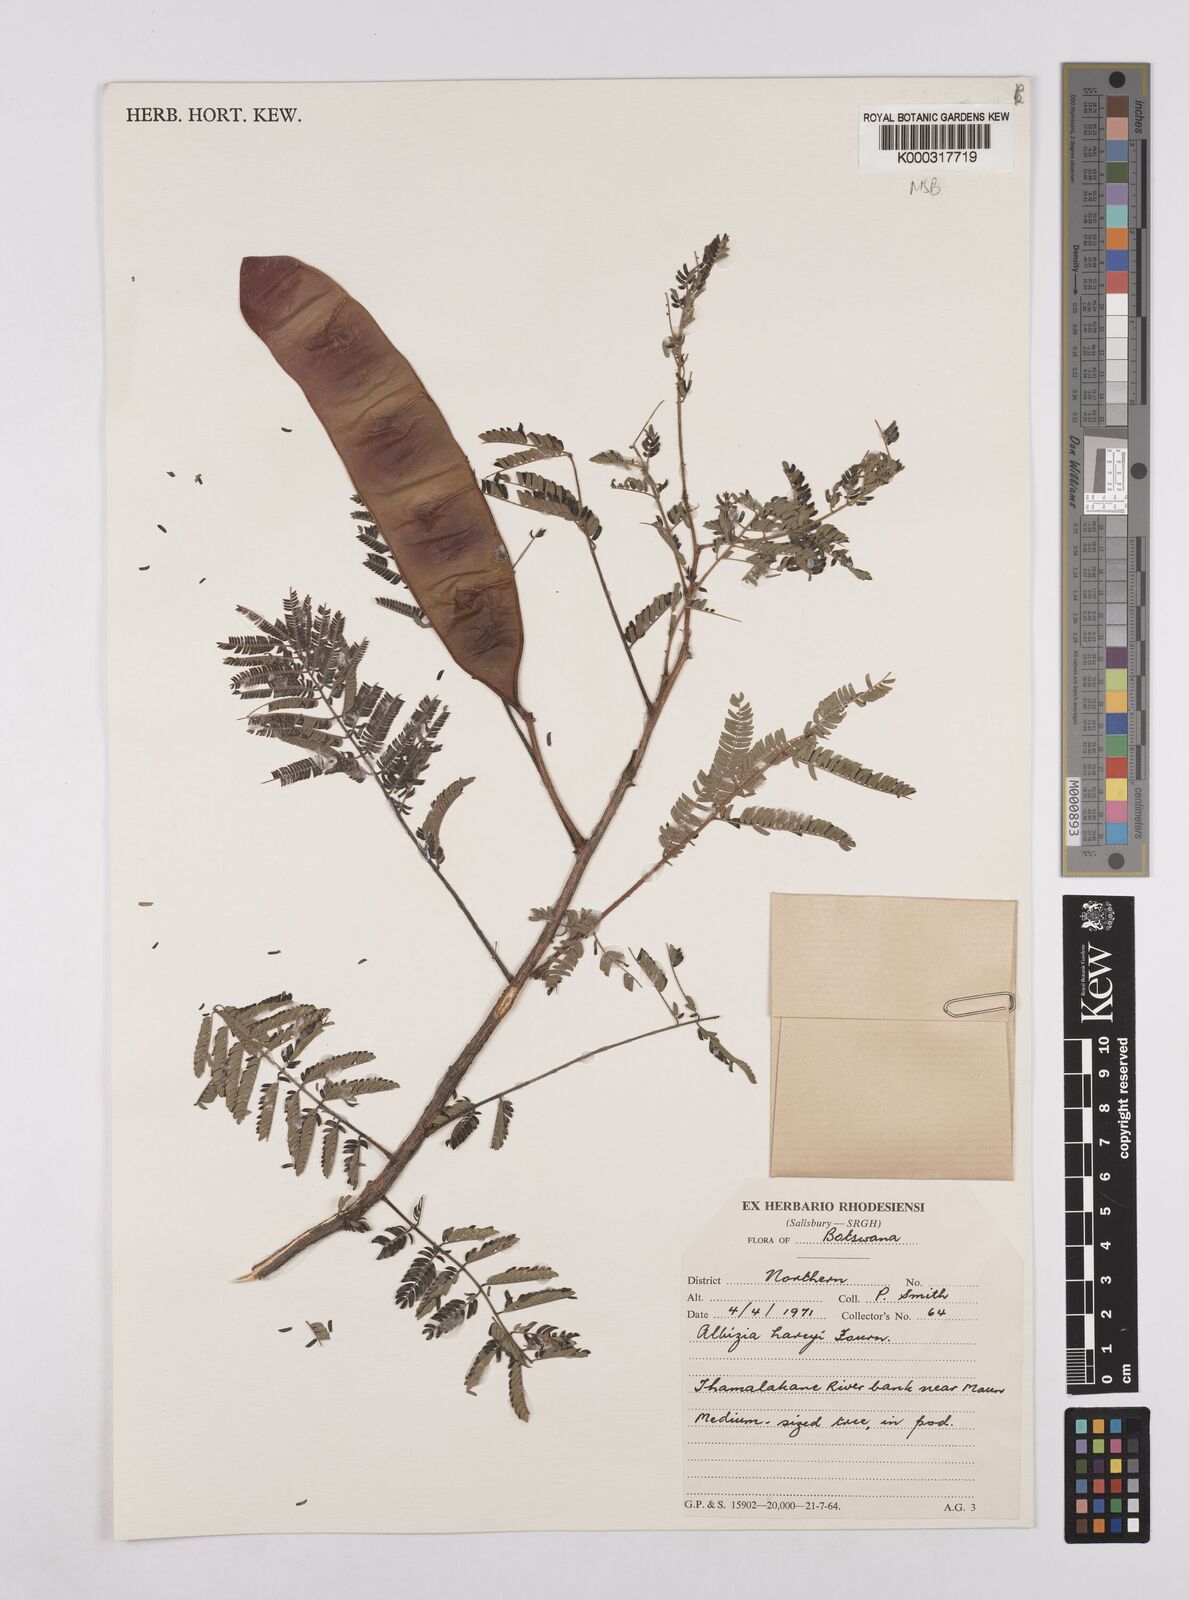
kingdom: Plantae
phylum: Tracheophyta
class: Magnoliopsida
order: Fabales
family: Fabaceae
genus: Albizia
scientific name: Albizia harveyi
